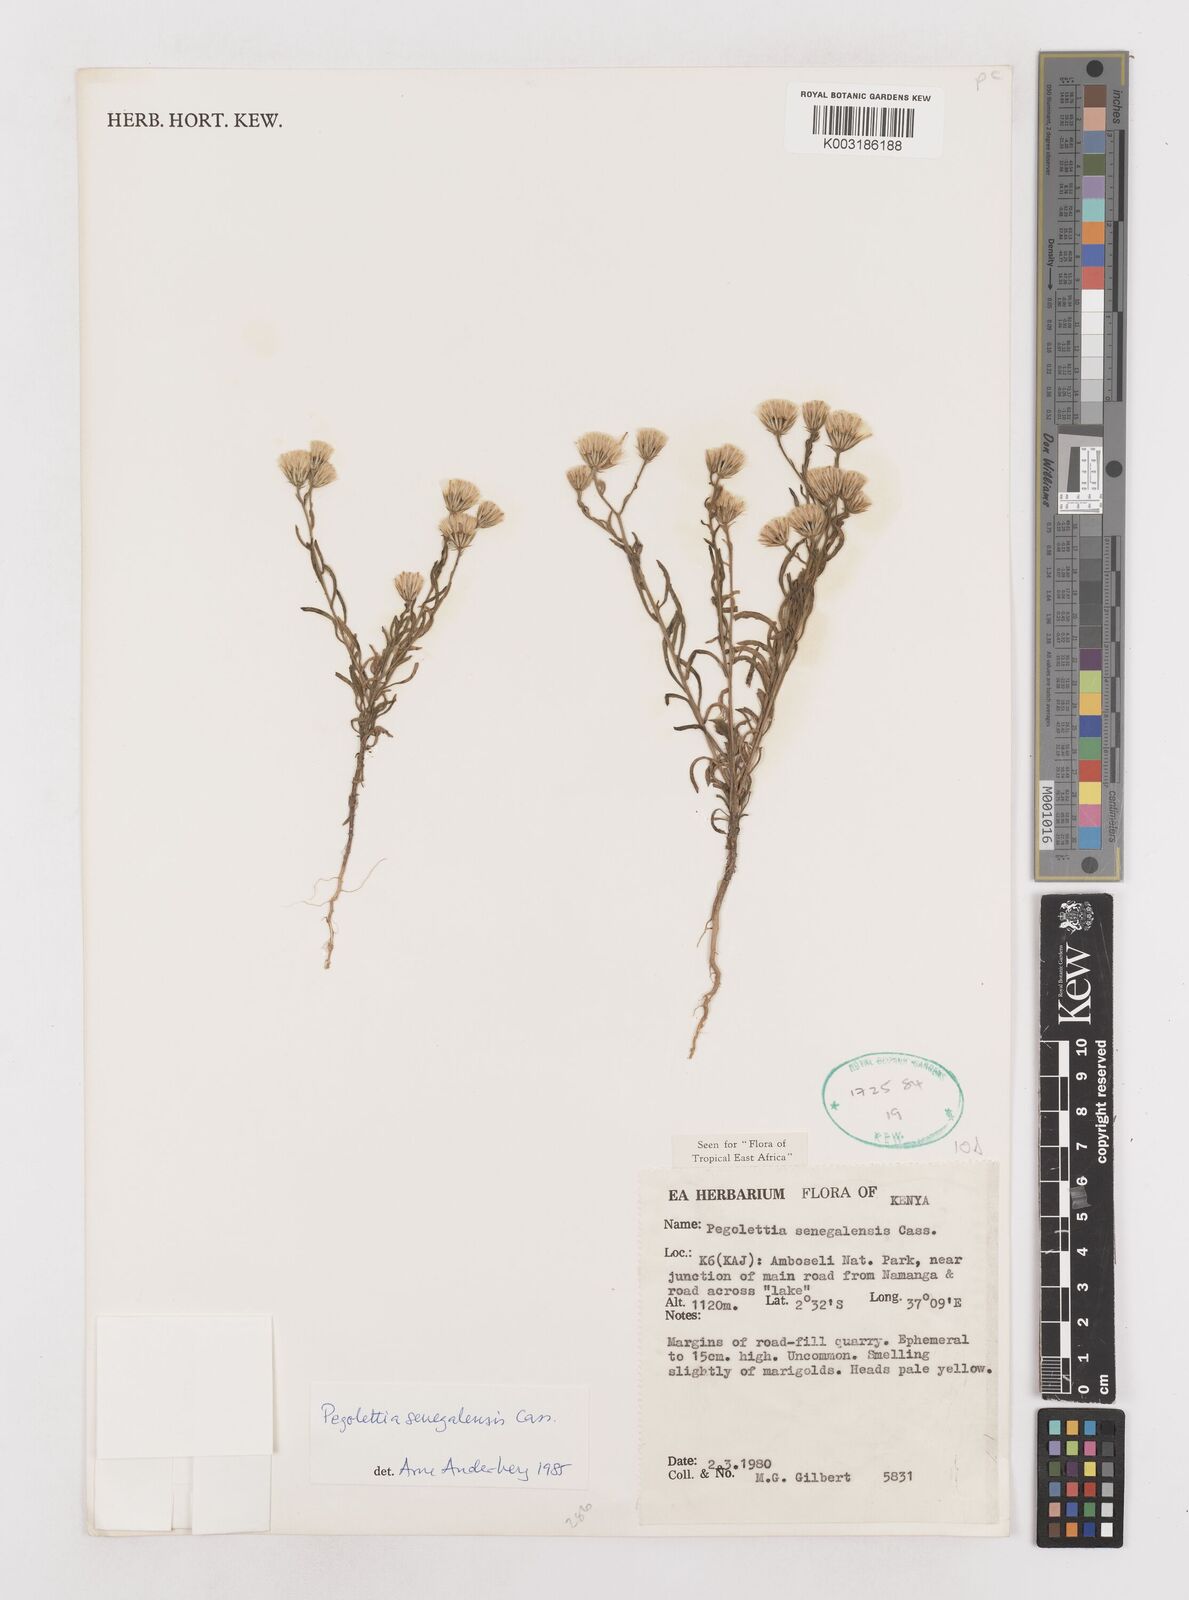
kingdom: Plantae
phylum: Tracheophyta
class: Magnoliopsida
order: Asterales
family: Asteraceae
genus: Pegolettia
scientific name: Pegolettia senegalensis
